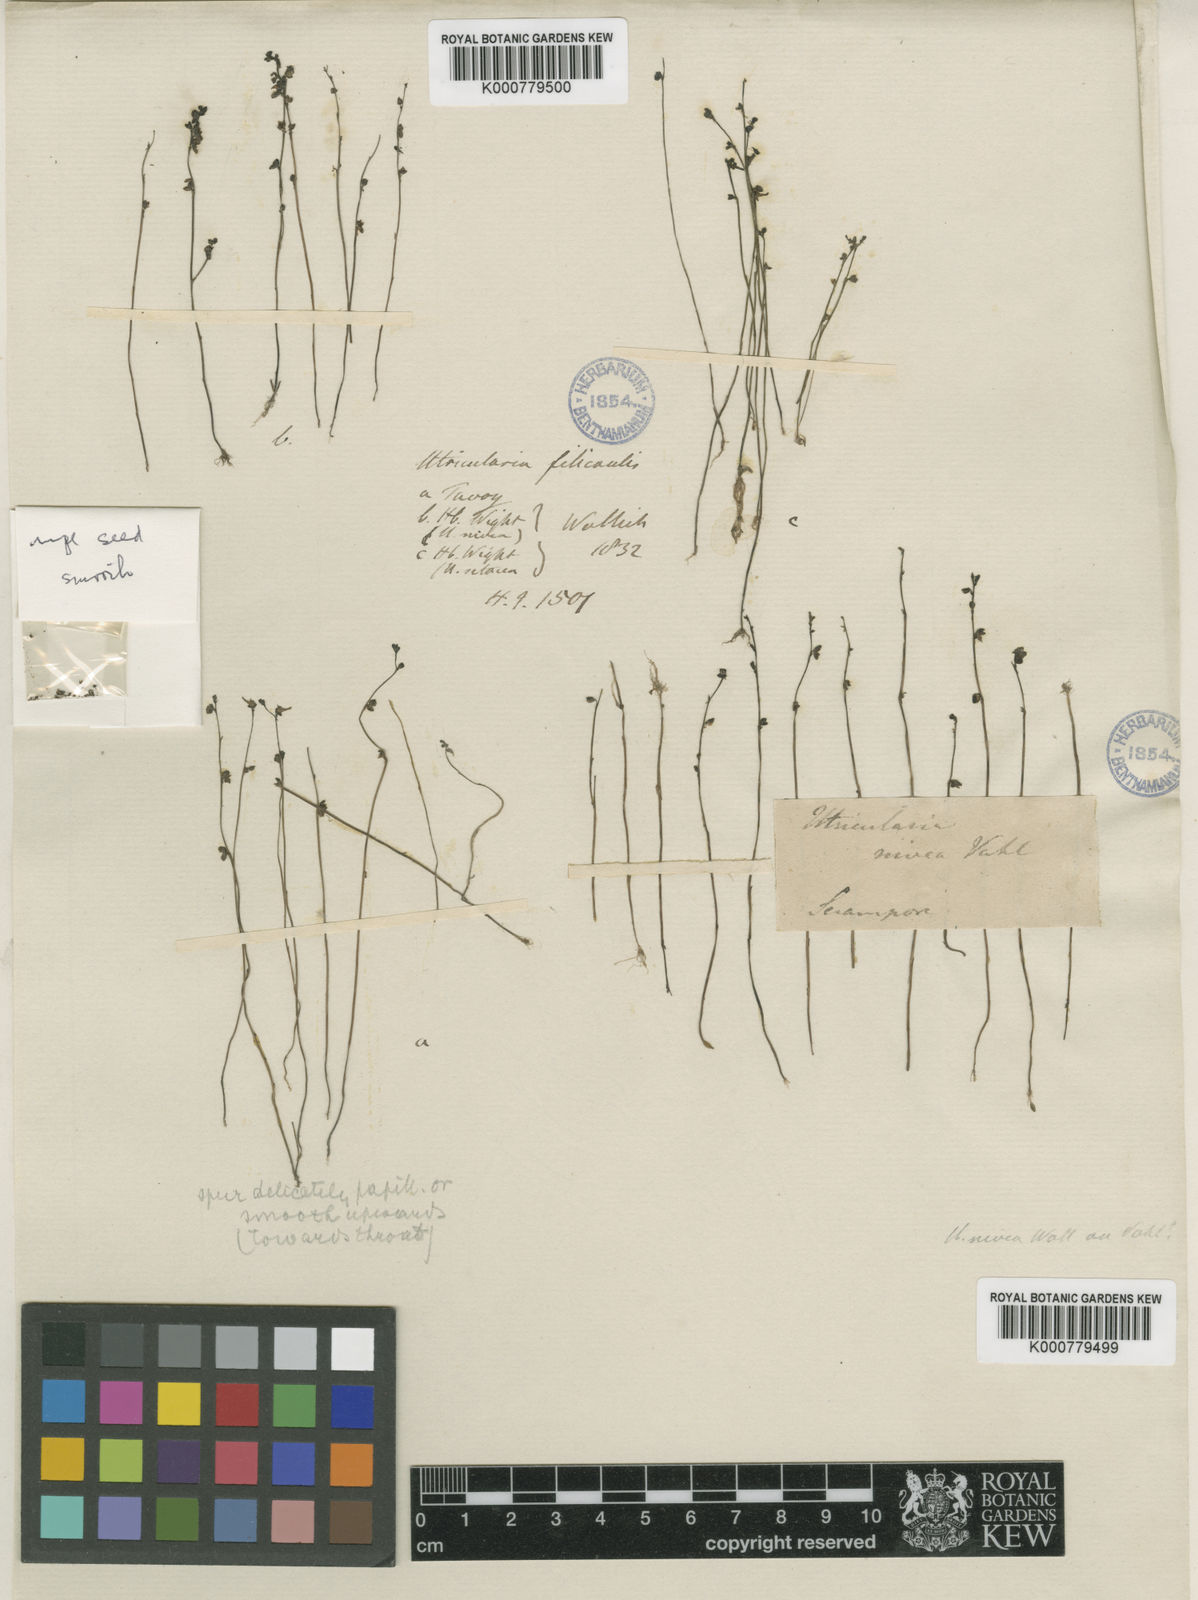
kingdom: Plantae
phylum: Tracheophyta
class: Magnoliopsida
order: Lamiales
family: Lentibulariaceae
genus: Utricularia
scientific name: Utricularia caerulea
